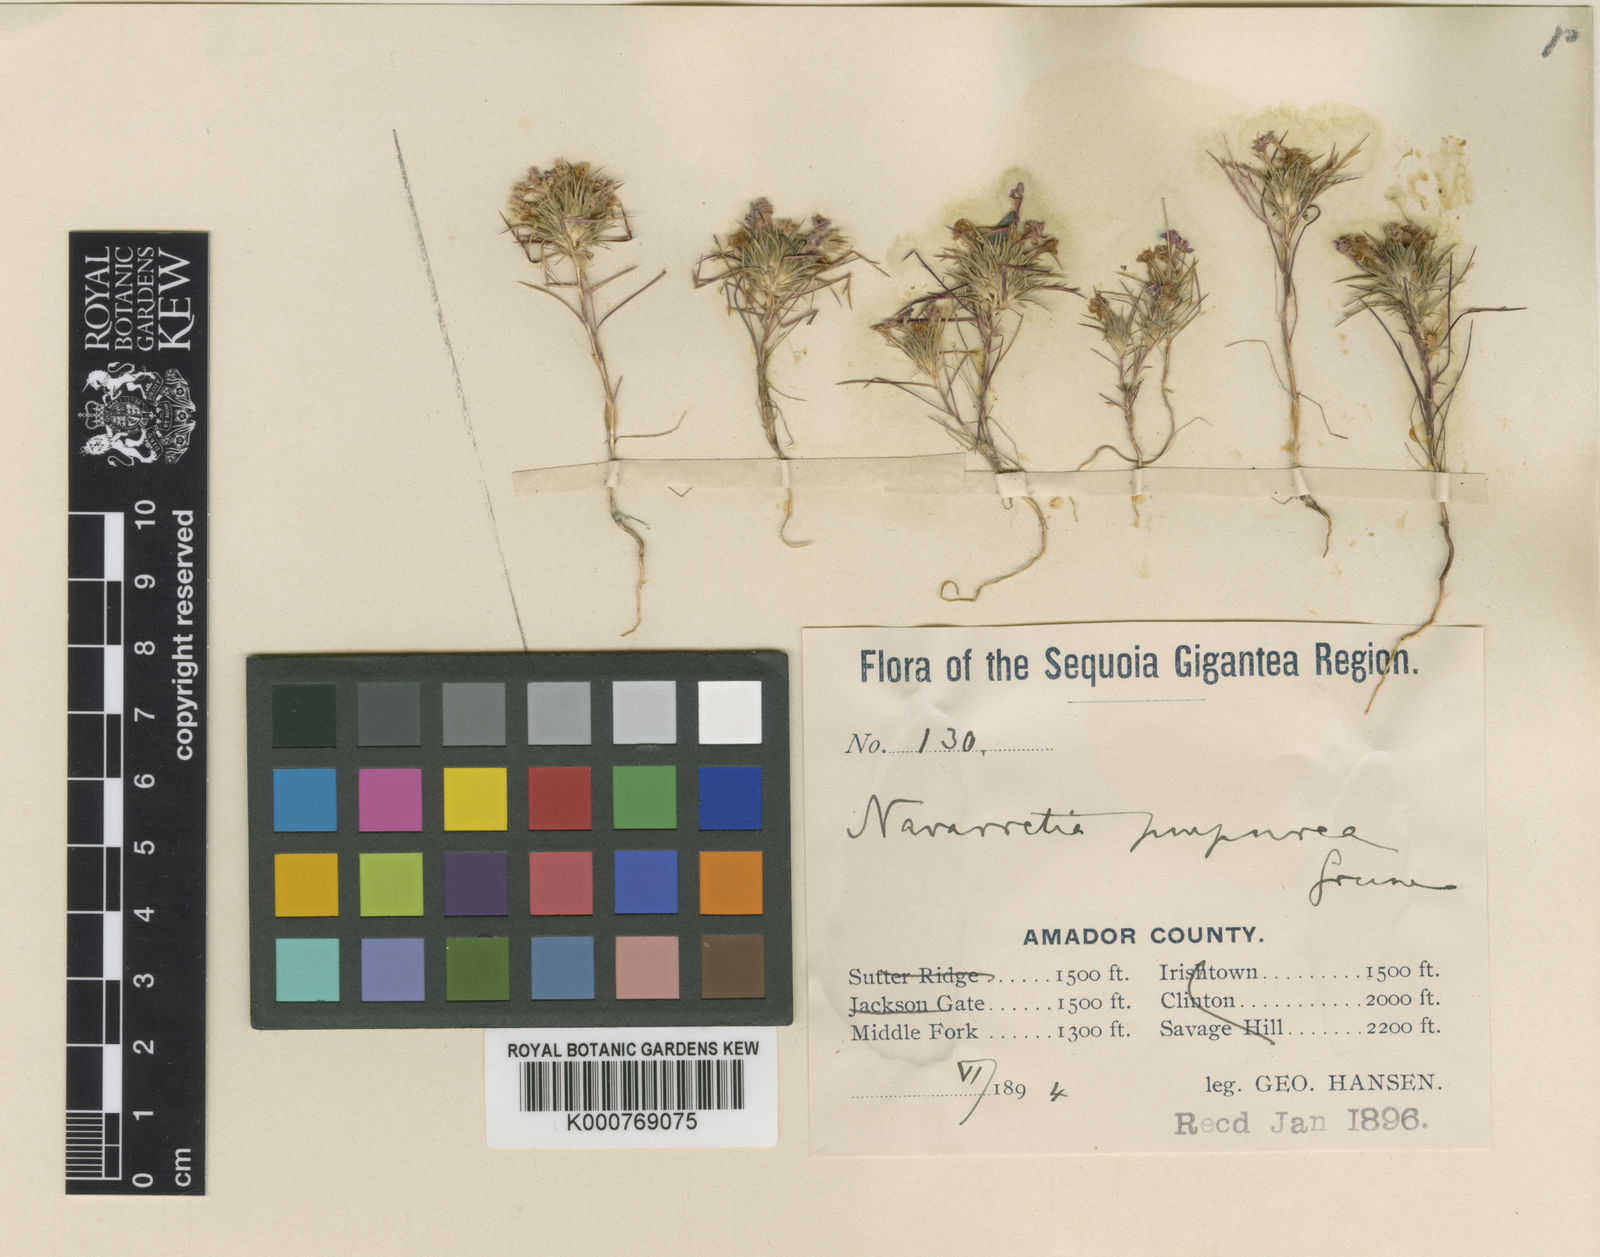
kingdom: Plantae
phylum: Tracheophyta
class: Magnoliopsida
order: Ericales
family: Polemoniaceae
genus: Navarretia
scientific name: Navarretia viscidula
